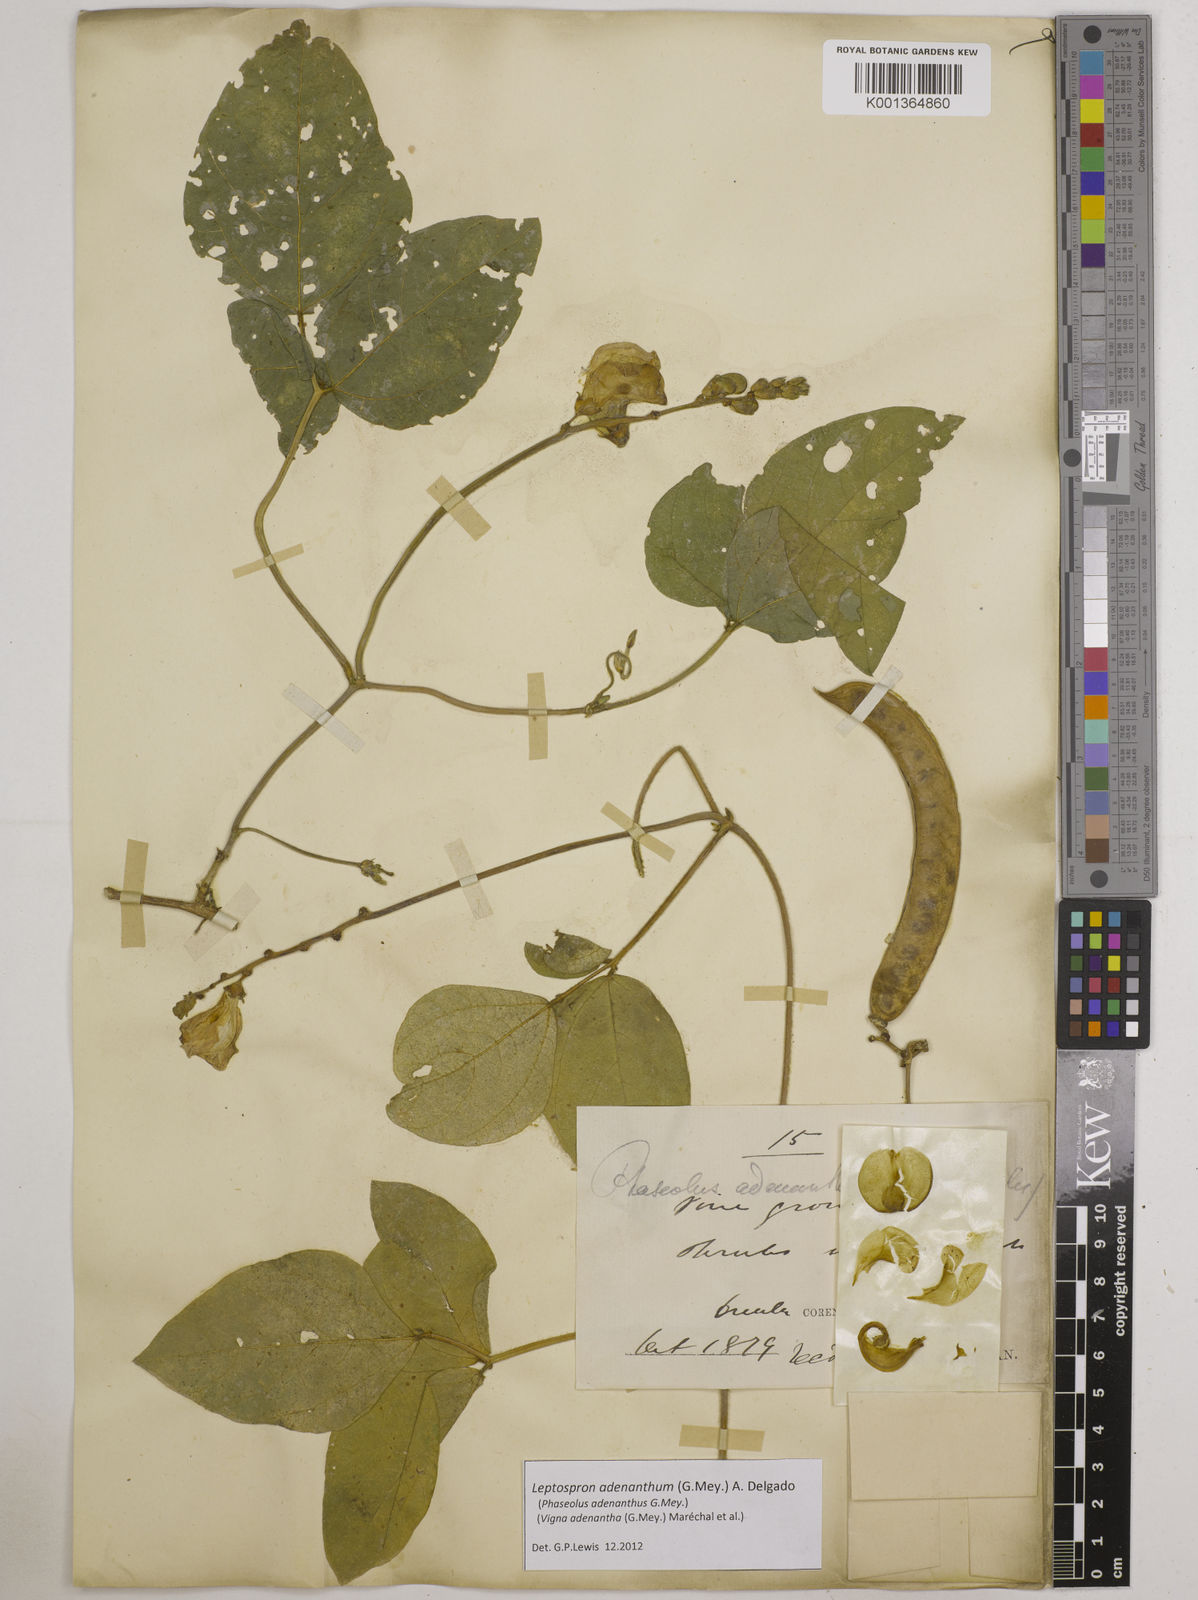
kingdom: Plantae
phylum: Tracheophyta
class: Magnoliopsida
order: Fabales
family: Fabaceae
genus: Leptospron
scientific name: Leptospron adenanthum
